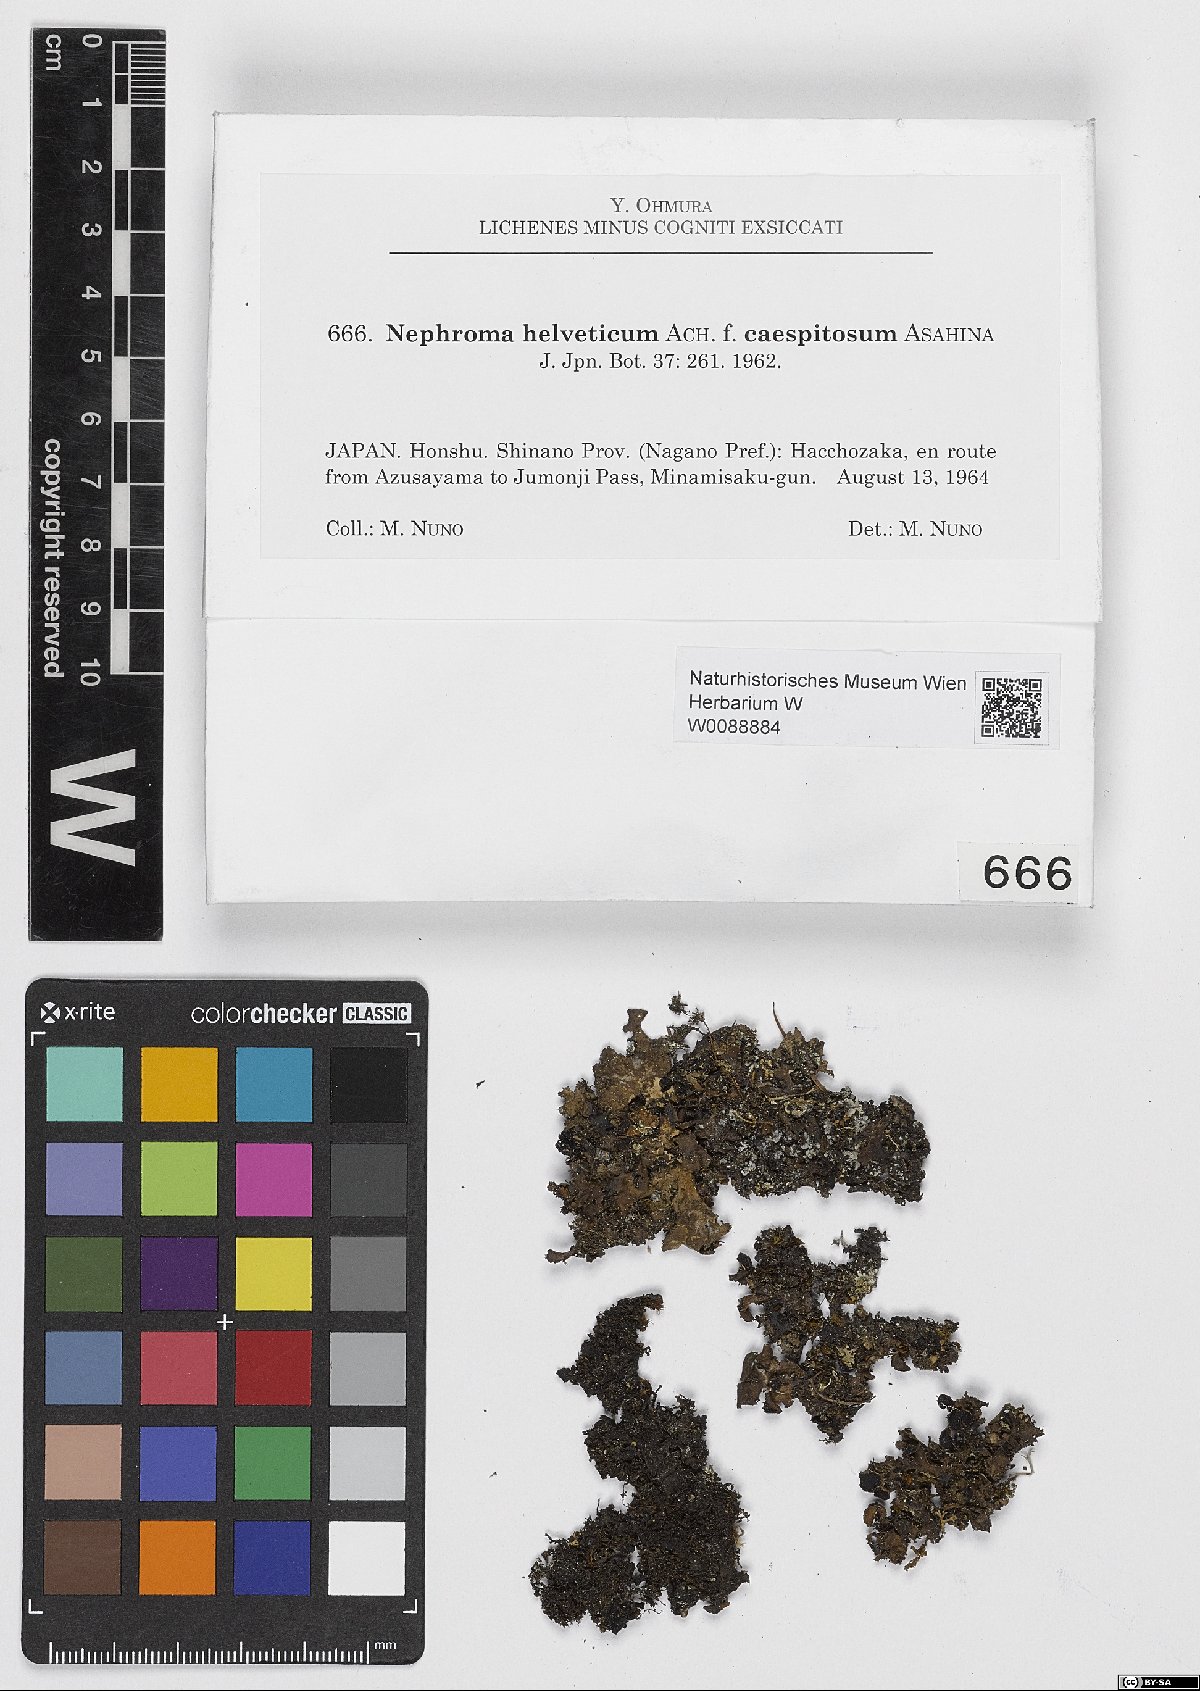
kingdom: Fungi
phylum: Ascomycota
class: Lecanoromycetes
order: Peltigerales
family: Nephromataceae
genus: Nephroma
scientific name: Nephroma helveticum
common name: Fringed kidney lichen
